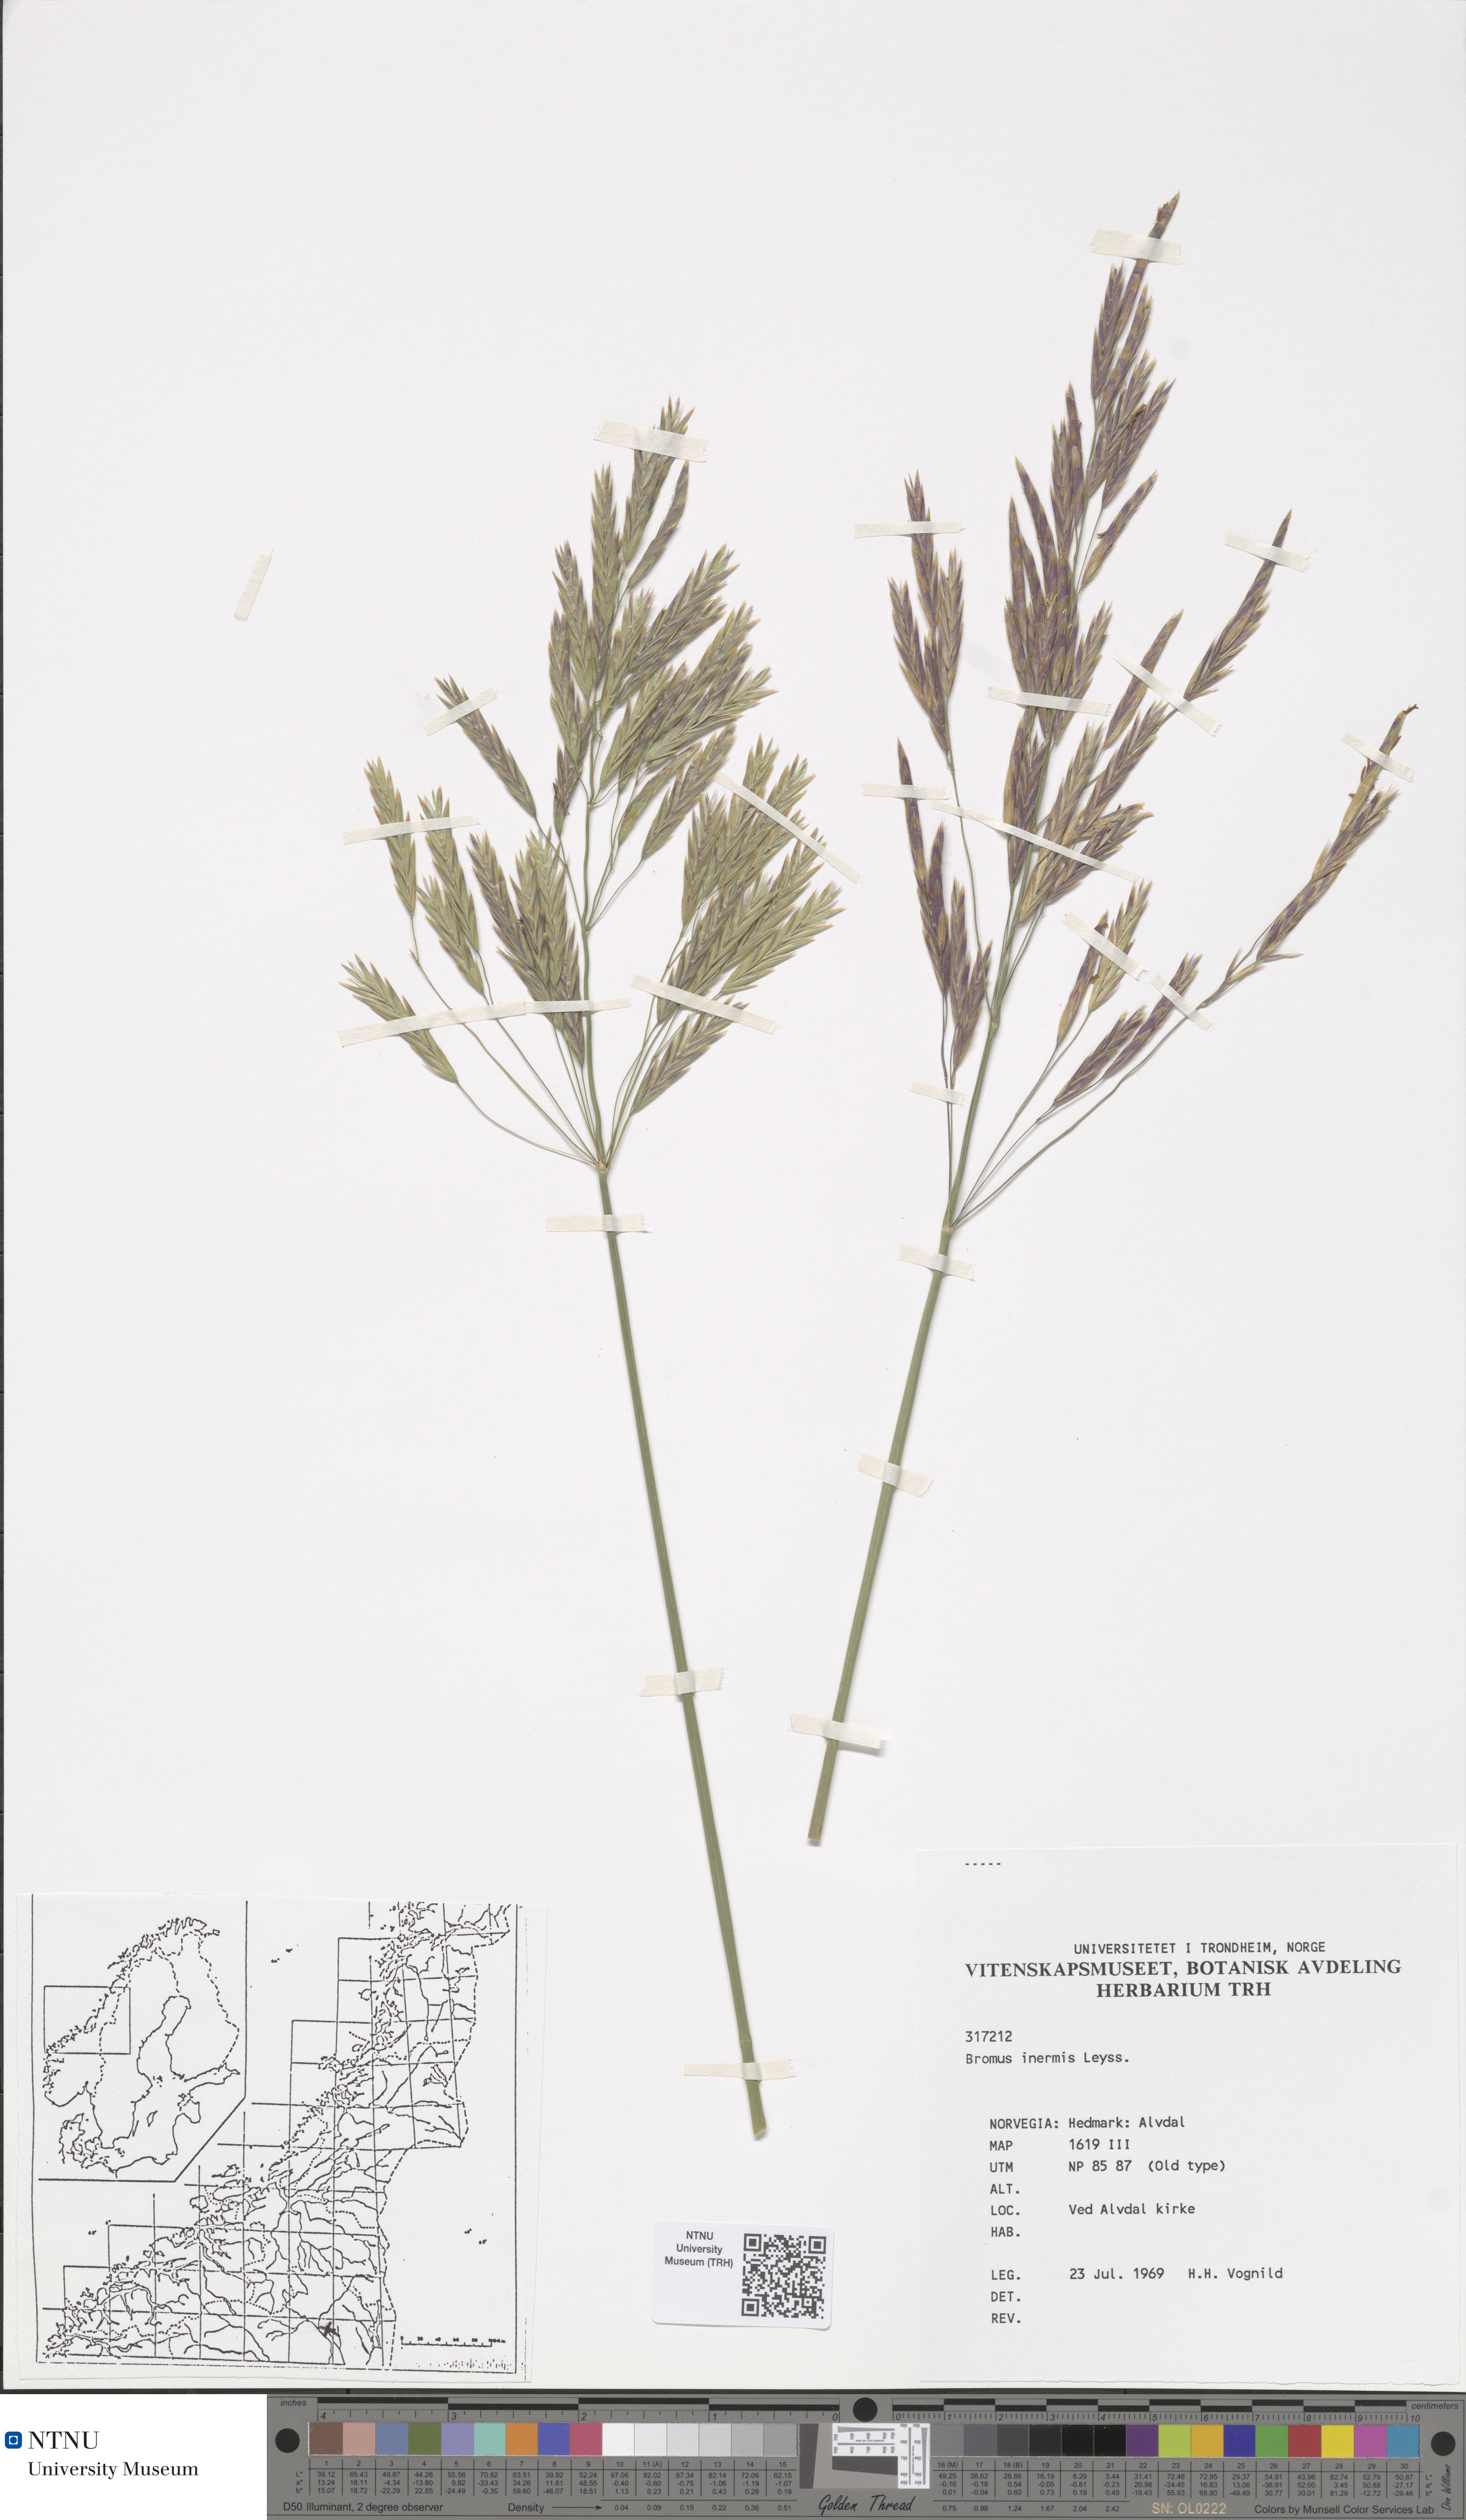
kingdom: Plantae
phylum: Tracheophyta
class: Liliopsida
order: Poales
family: Poaceae
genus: Bromus
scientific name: Bromus inermis
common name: Smooth brome
